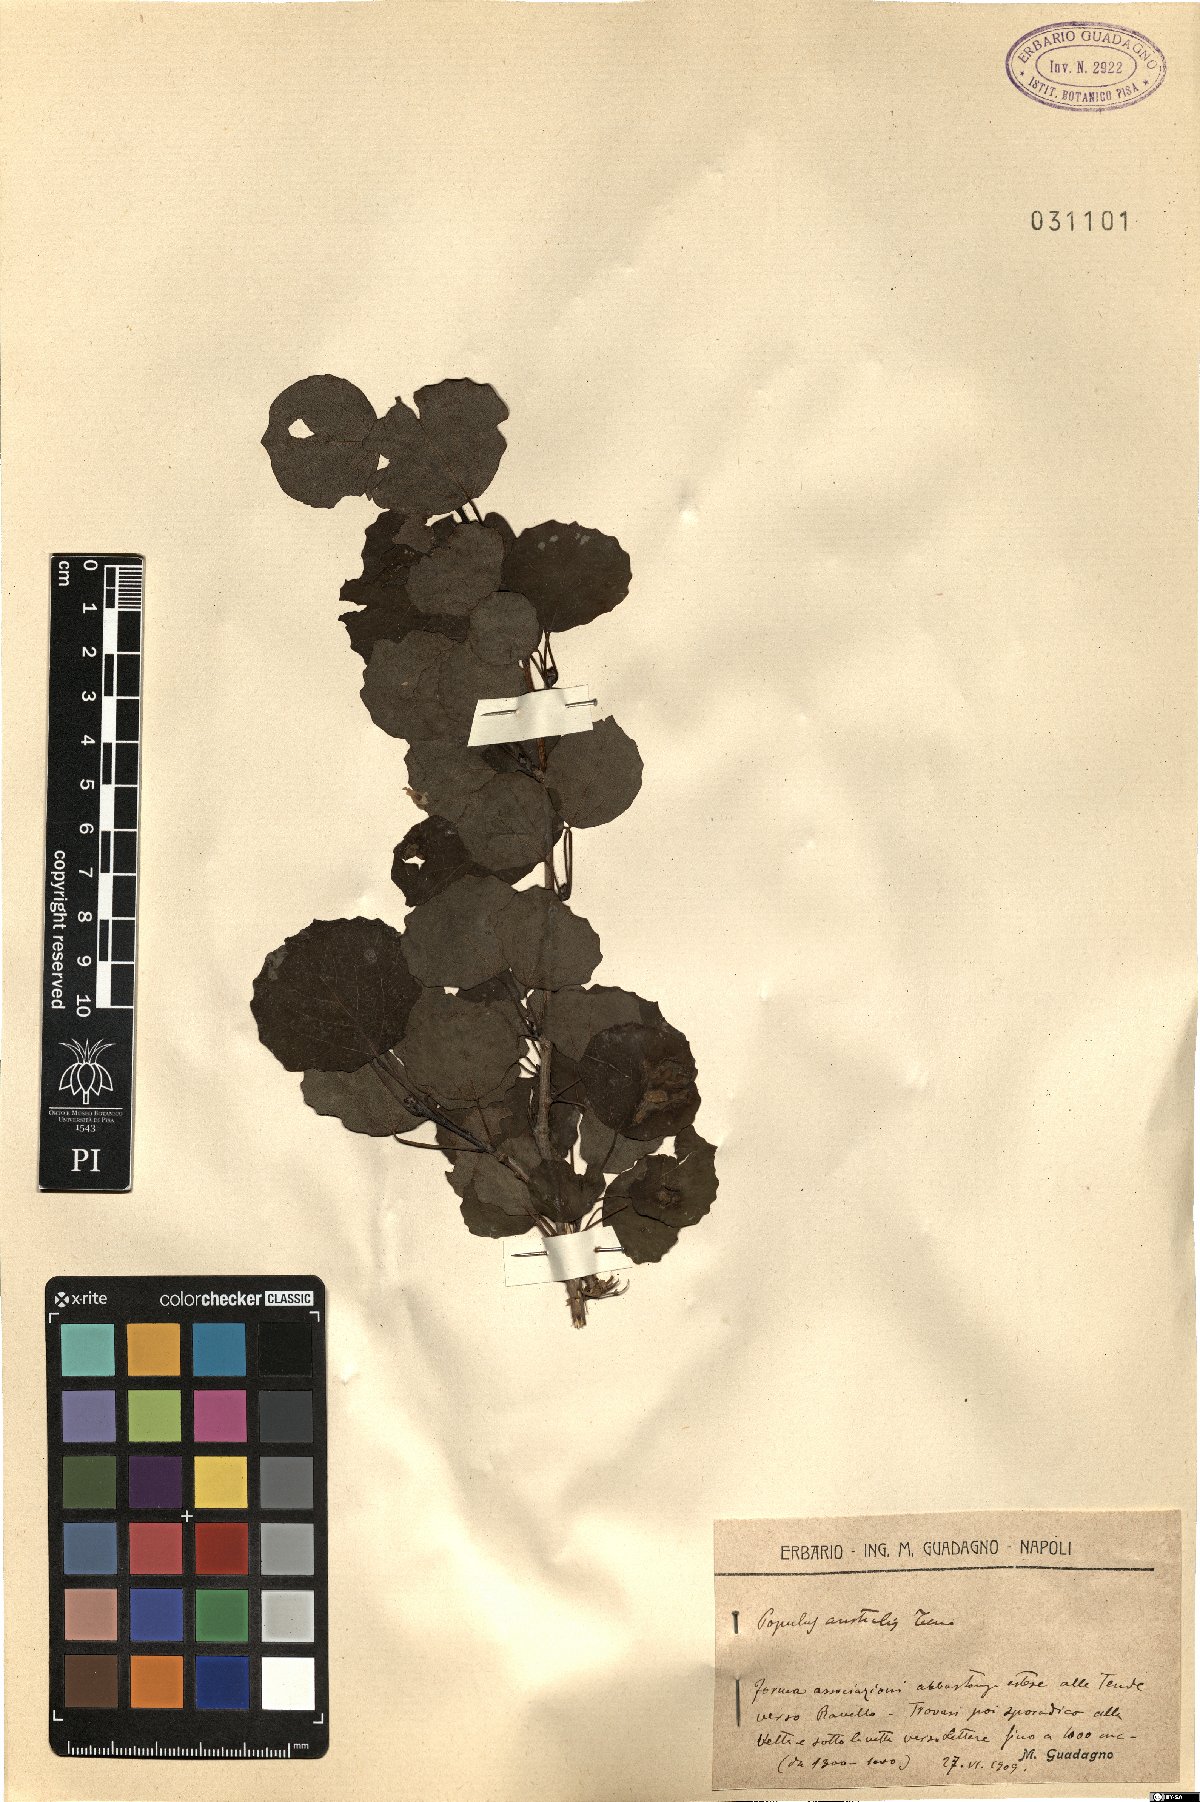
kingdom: Plantae
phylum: Tracheophyta
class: Magnoliopsida
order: Malpighiales
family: Salicaceae
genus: Populus
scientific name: Populus tremula
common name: European aspen
